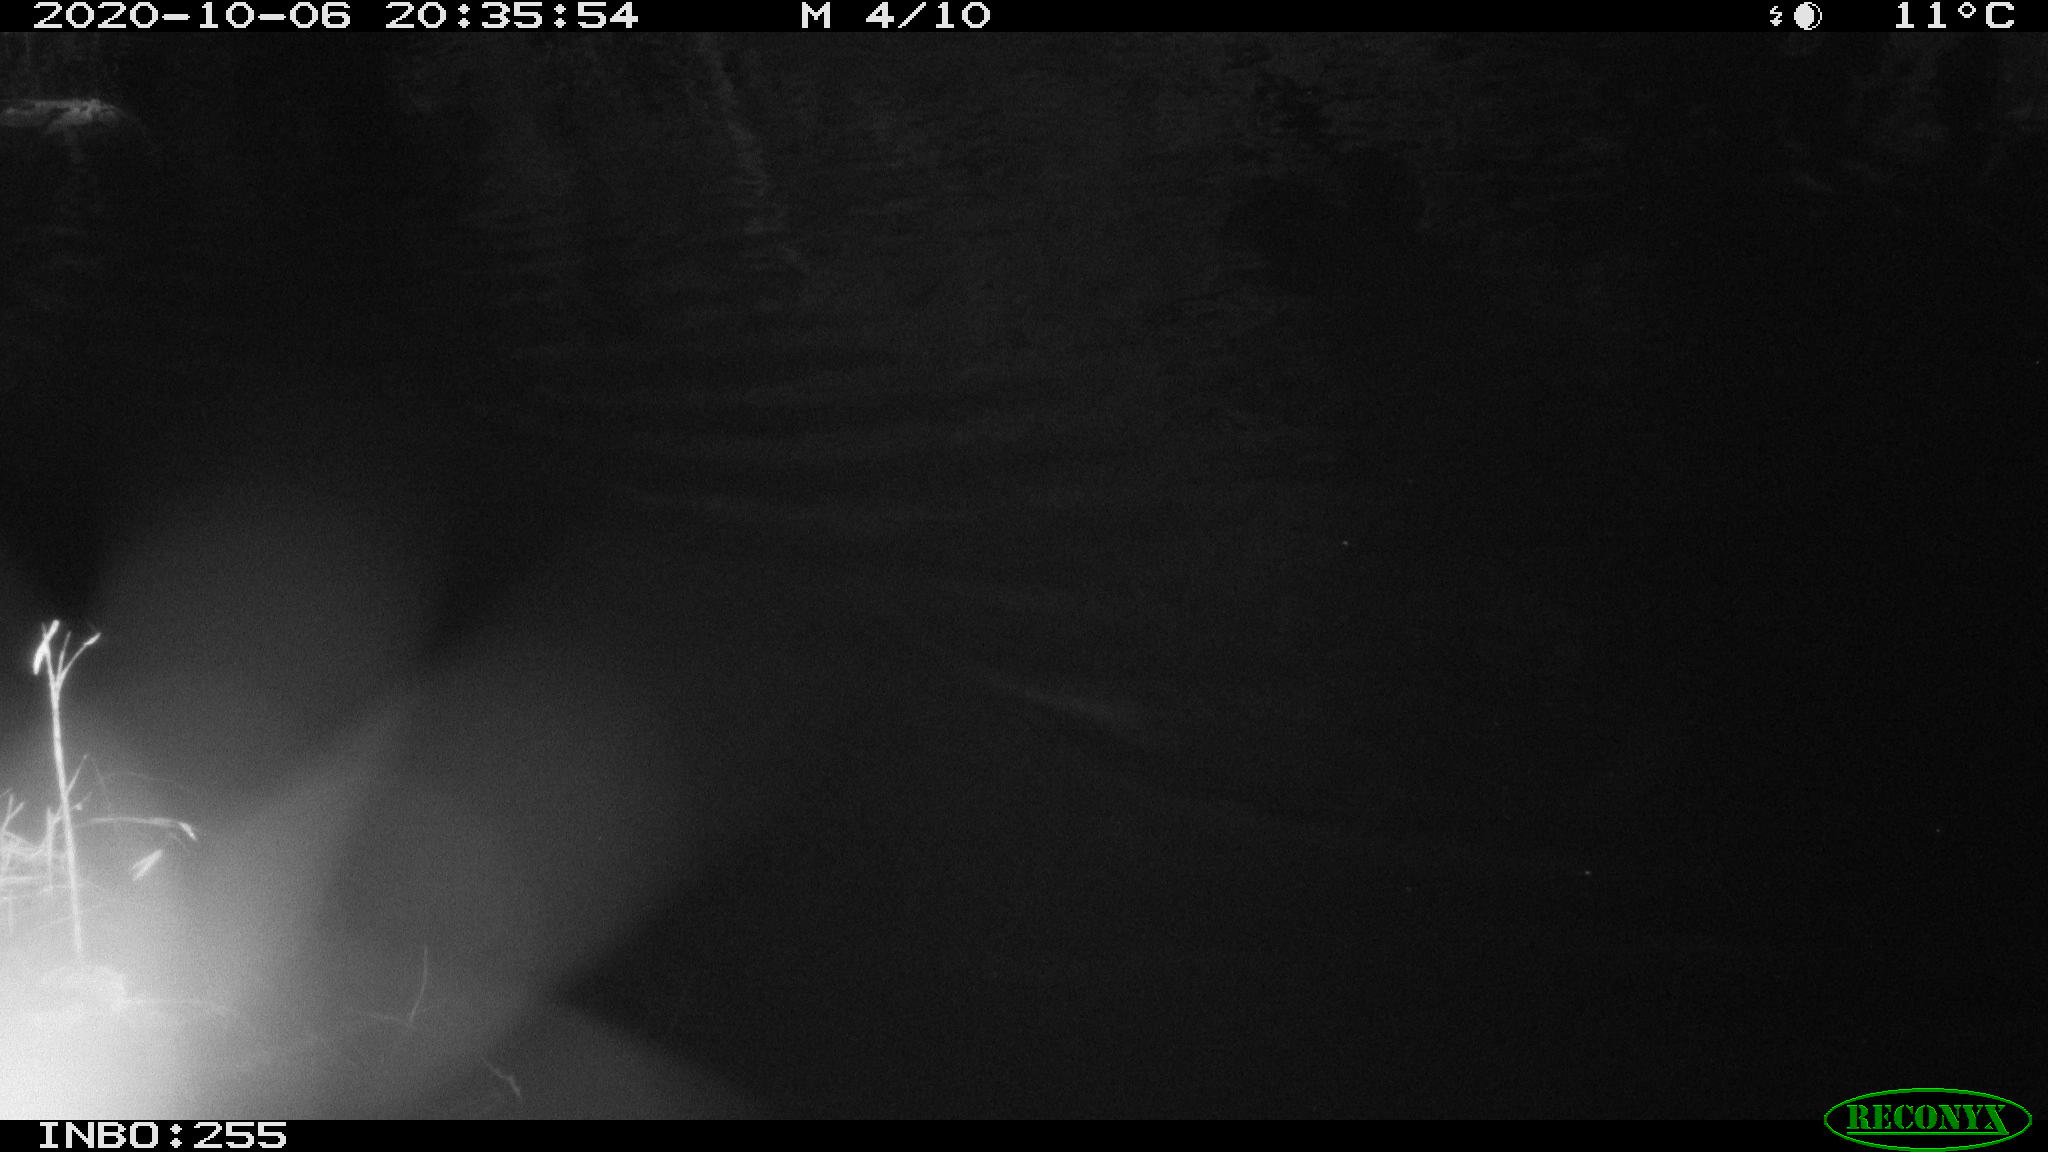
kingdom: Animalia
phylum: Chordata
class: Mammalia
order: Rodentia
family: Muridae
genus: Rattus
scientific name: Rattus norvegicus
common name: Brown rat
